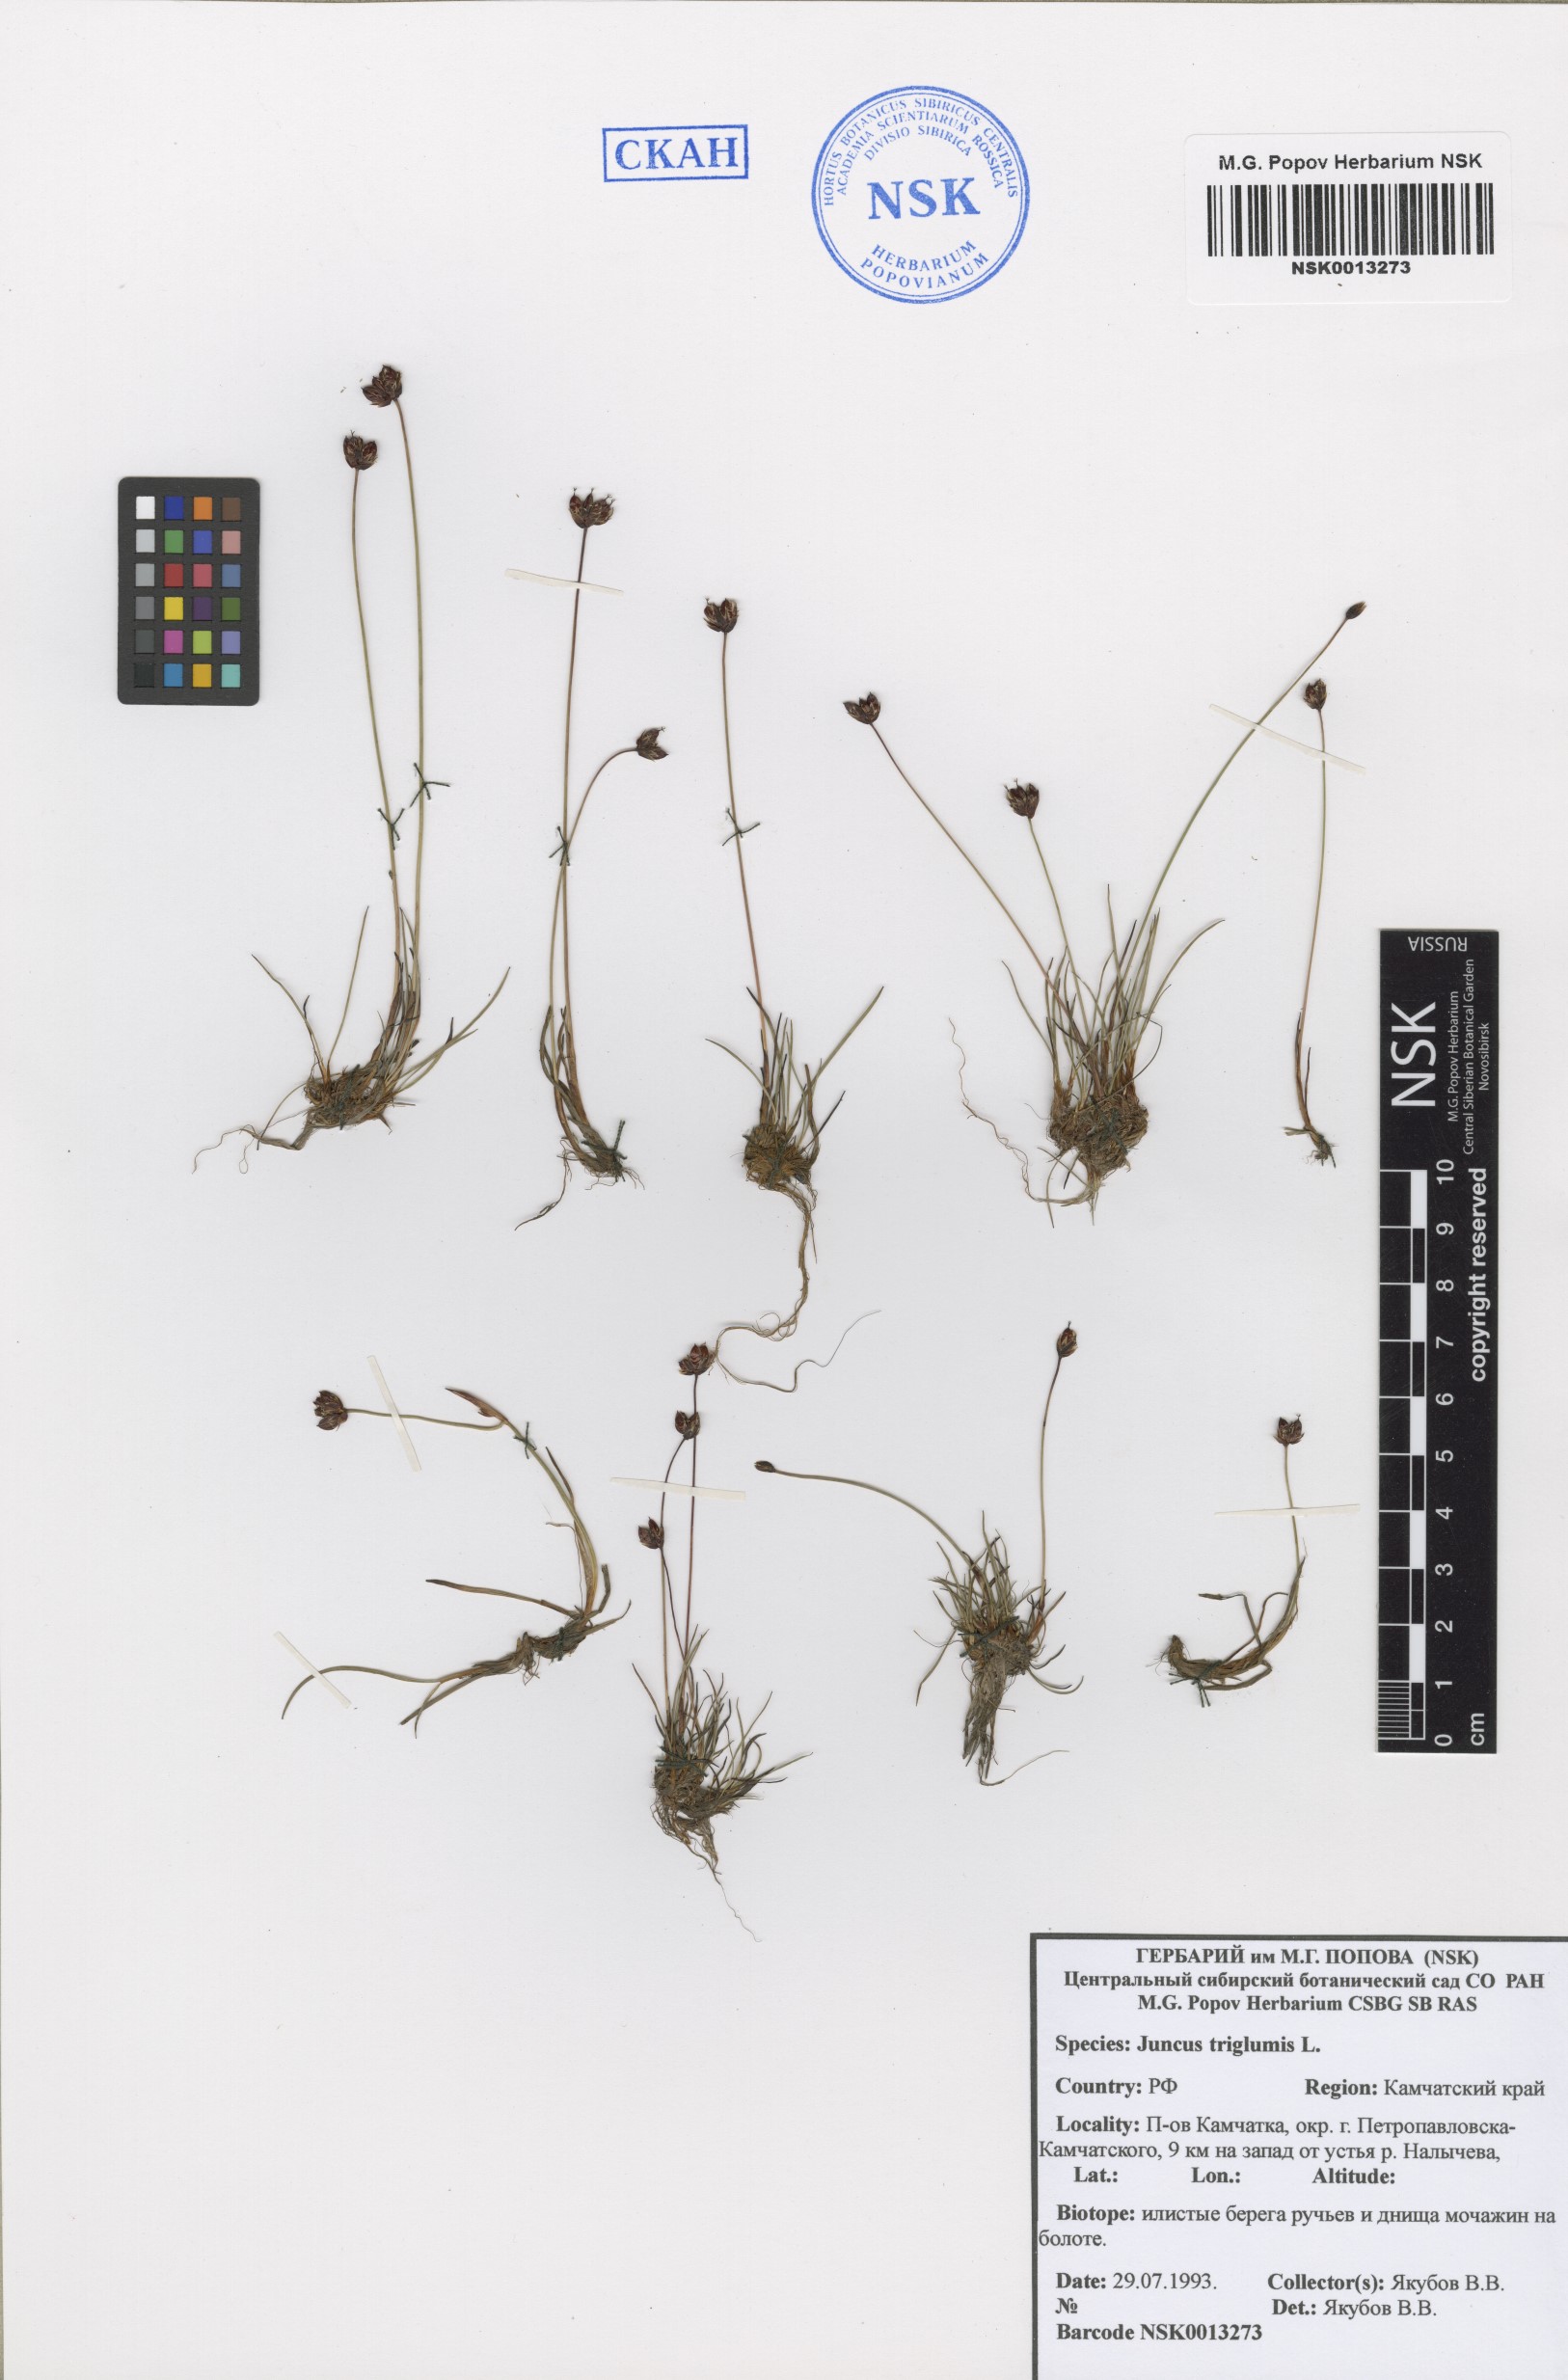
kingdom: Plantae
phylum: Tracheophyta
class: Liliopsida
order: Poales
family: Juncaceae
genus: Juncus
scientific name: Juncus triglumis
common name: Three-flowered rush
